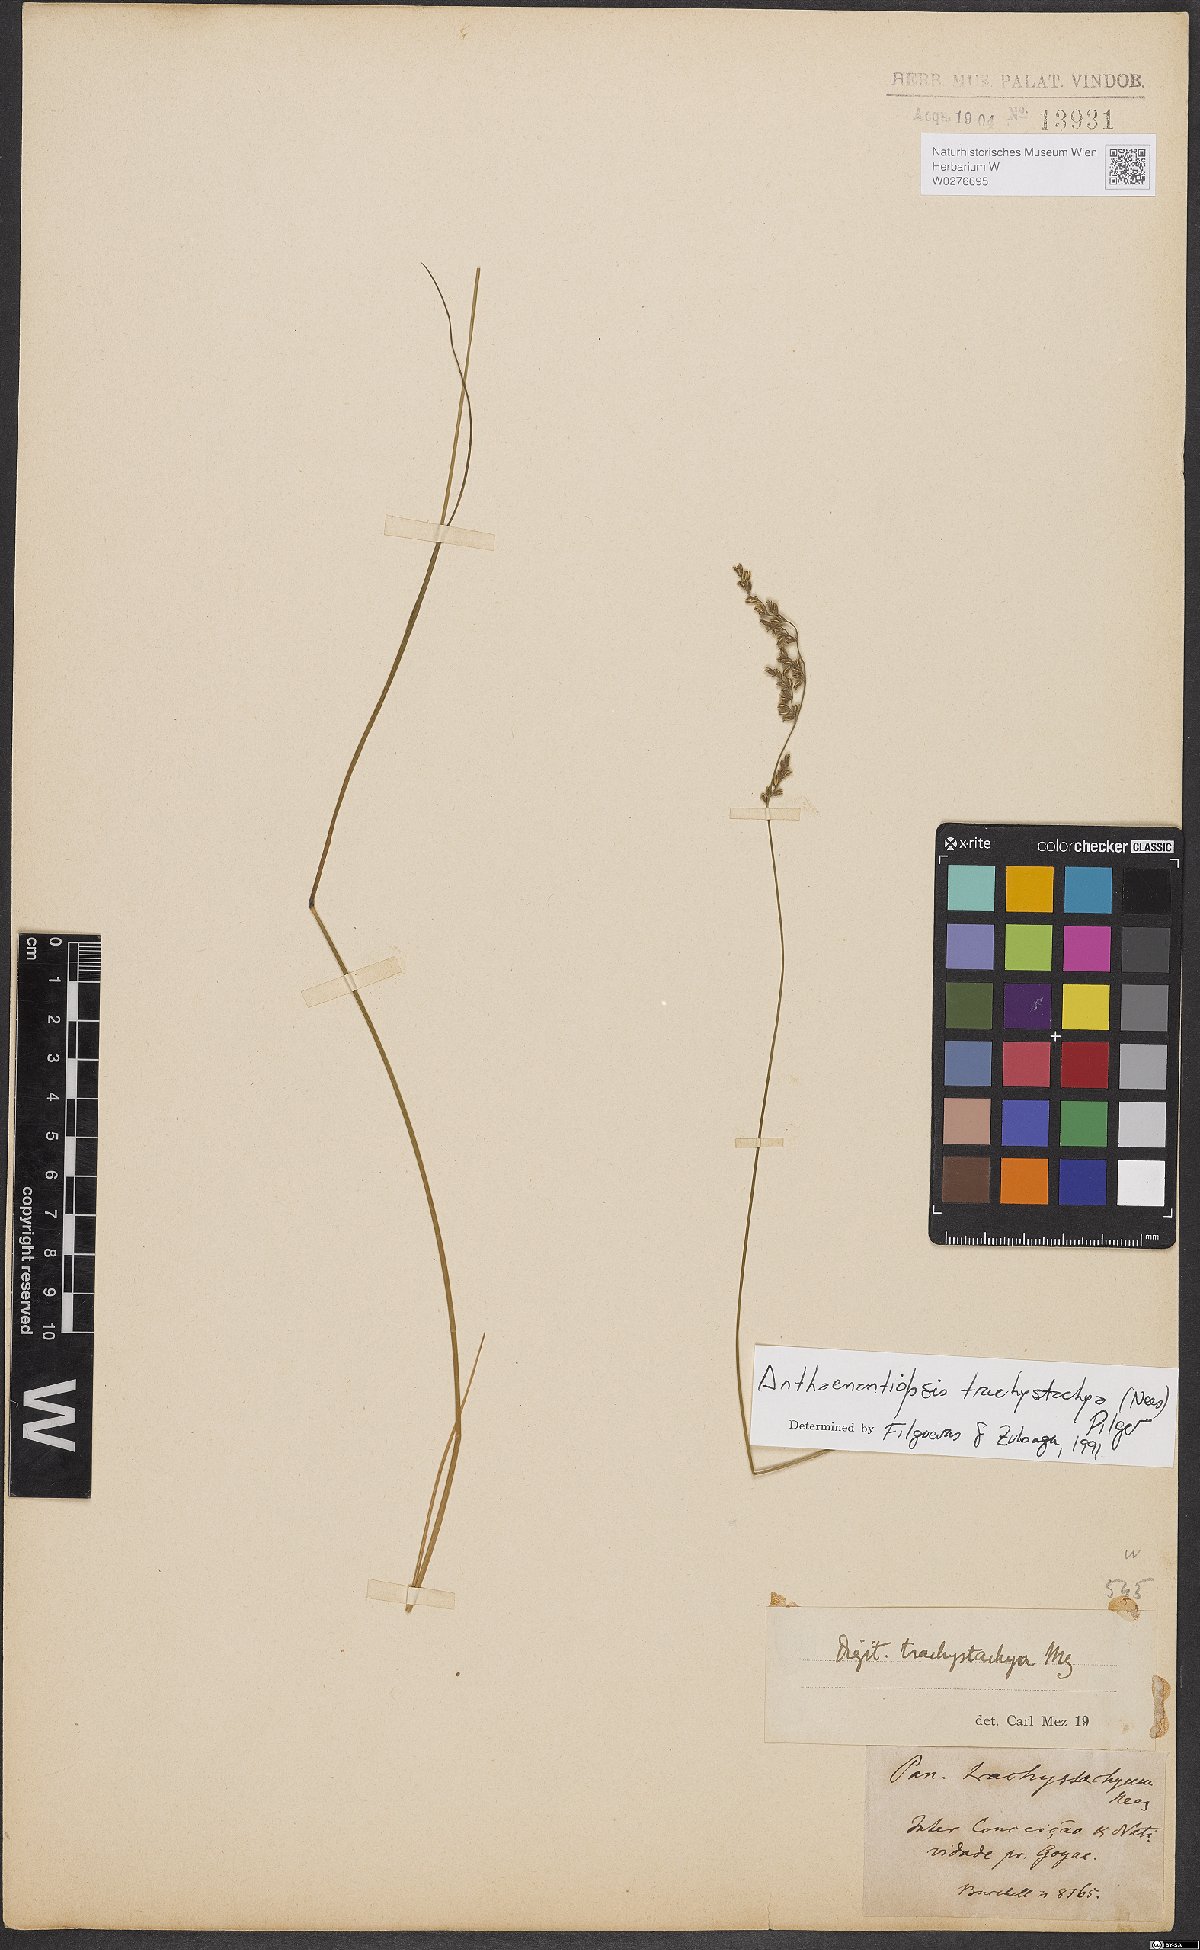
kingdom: Plantae
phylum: Tracheophyta
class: Liliopsida
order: Poales
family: Poaceae
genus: Anthaenantiopsis
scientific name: Anthaenantiopsis trachystachya
